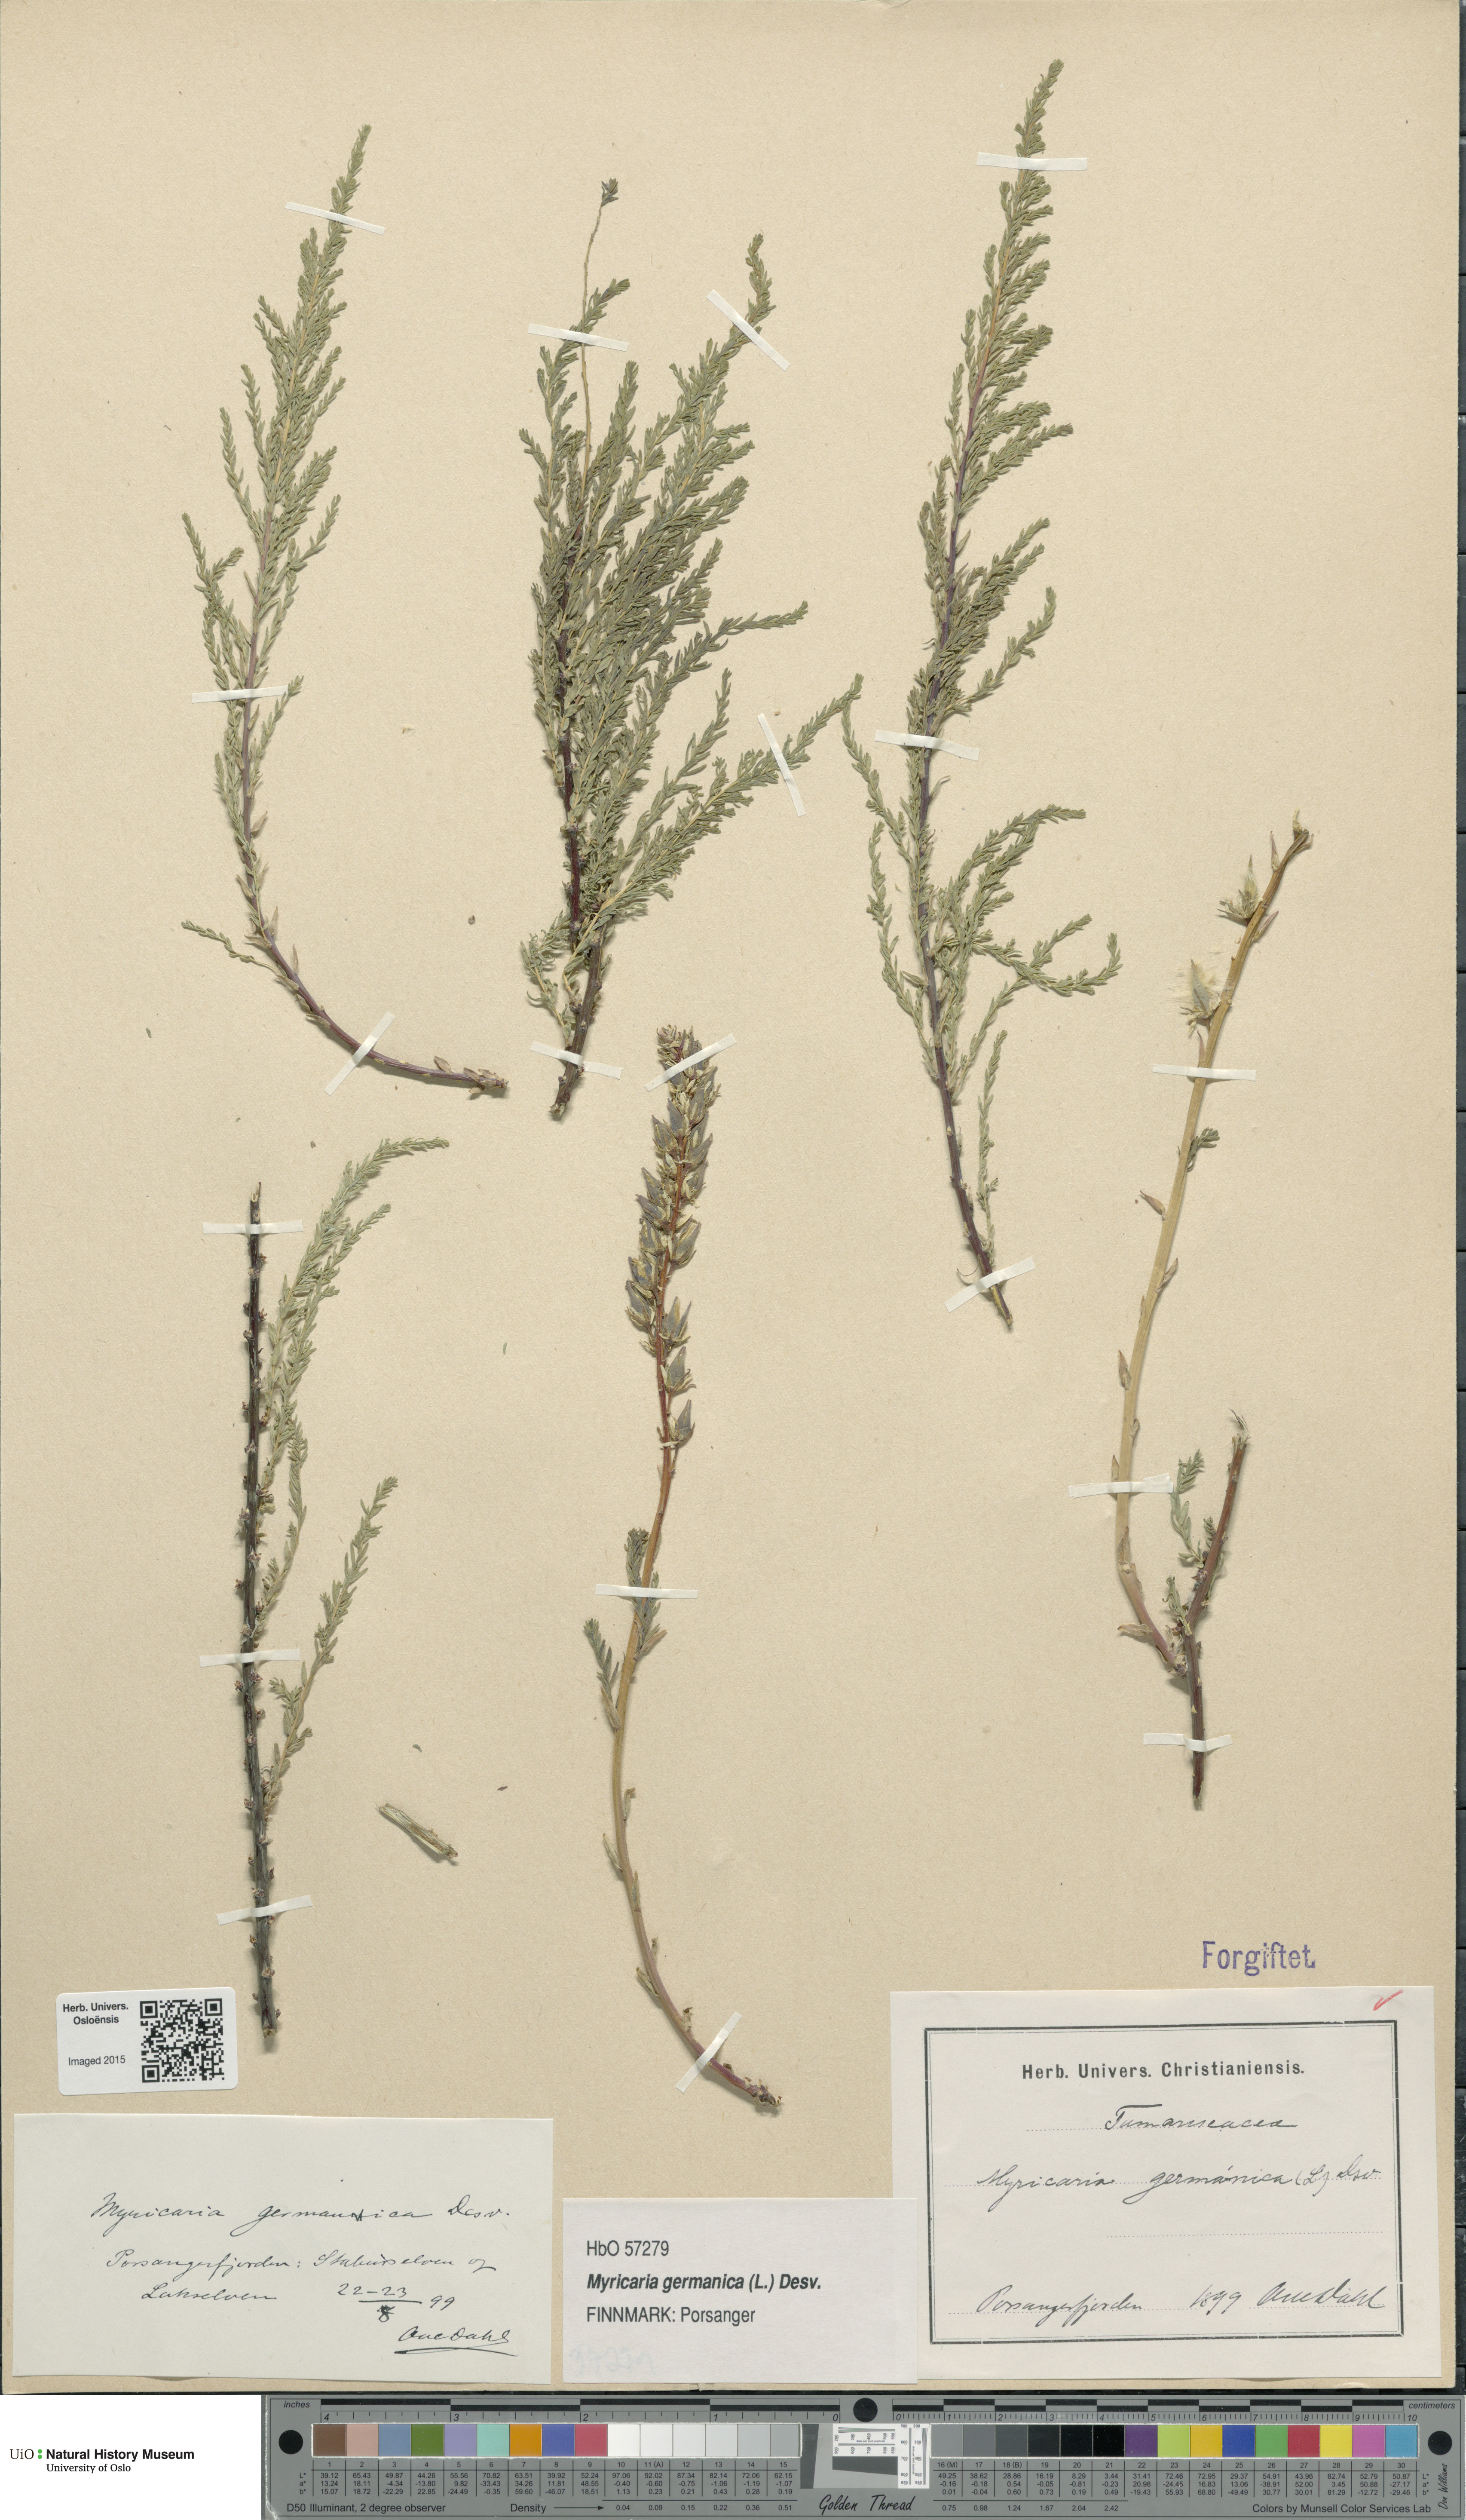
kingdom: Plantae
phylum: Tracheophyta
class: Magnoliopsida
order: Caryophyllales
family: Tamaricaceae
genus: Myricaria
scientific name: Myricaria germanica
